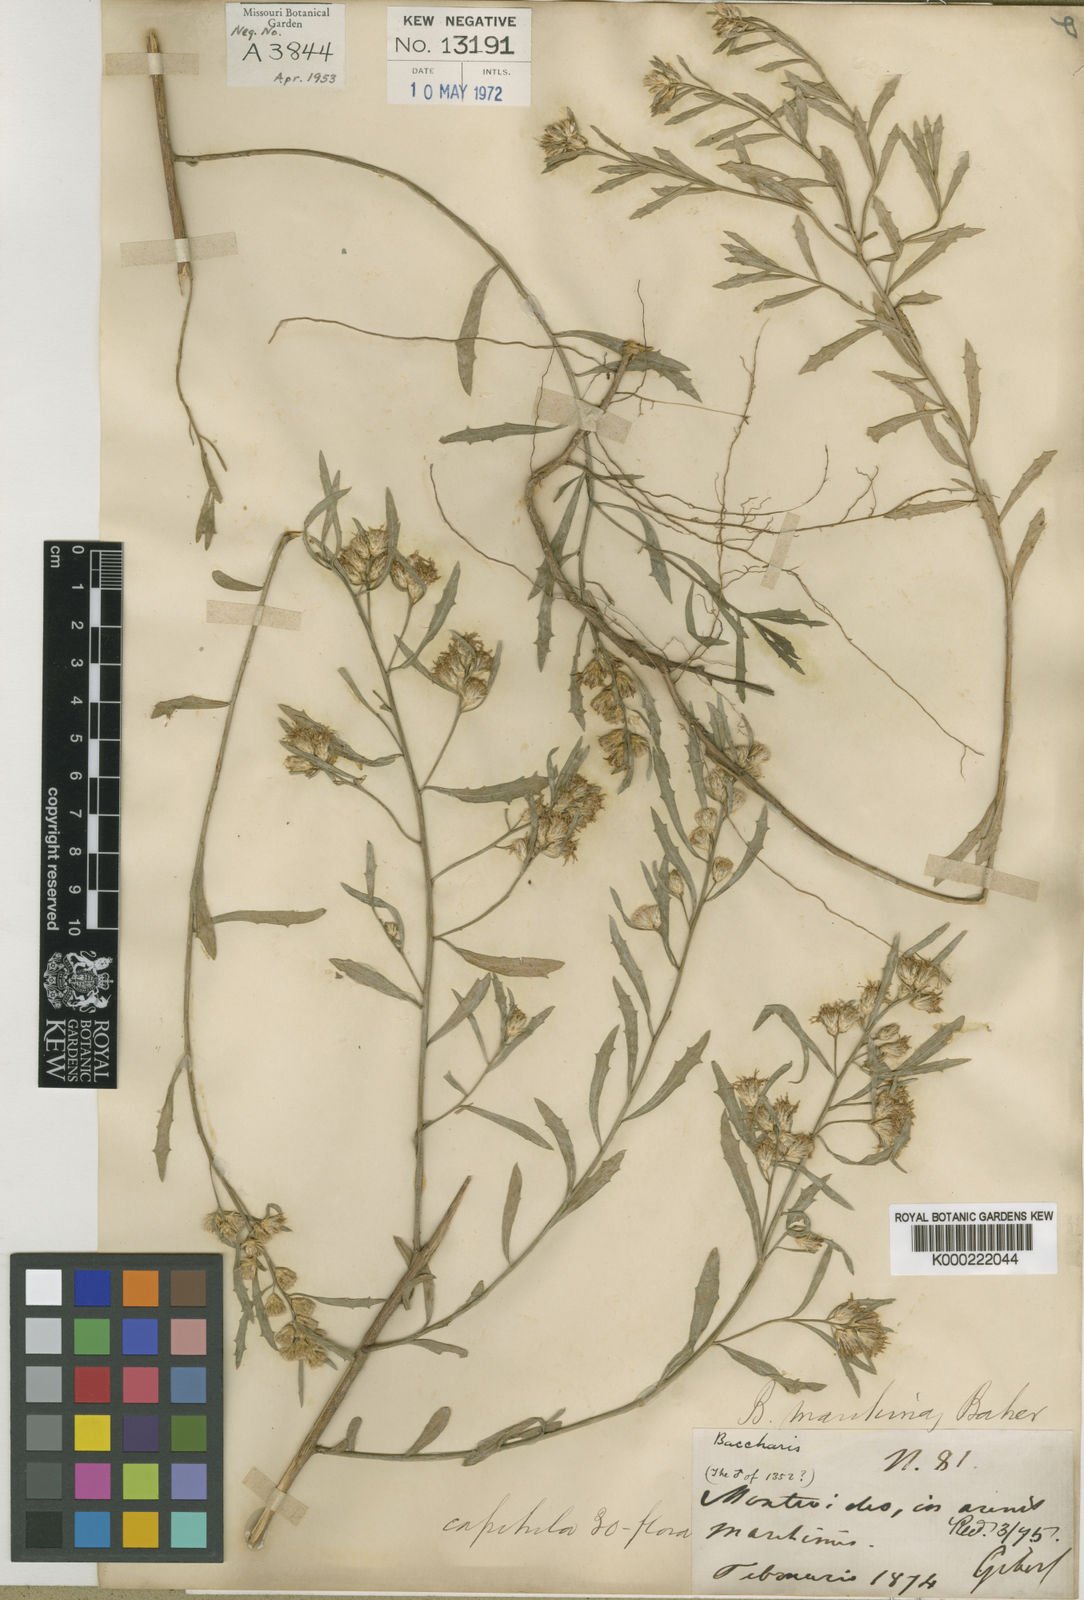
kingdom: Plantae
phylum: Tracheophyta
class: Magnoliopsida
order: Asterales
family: Asteraceae
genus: Baccharis
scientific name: Baccharis rufescens
